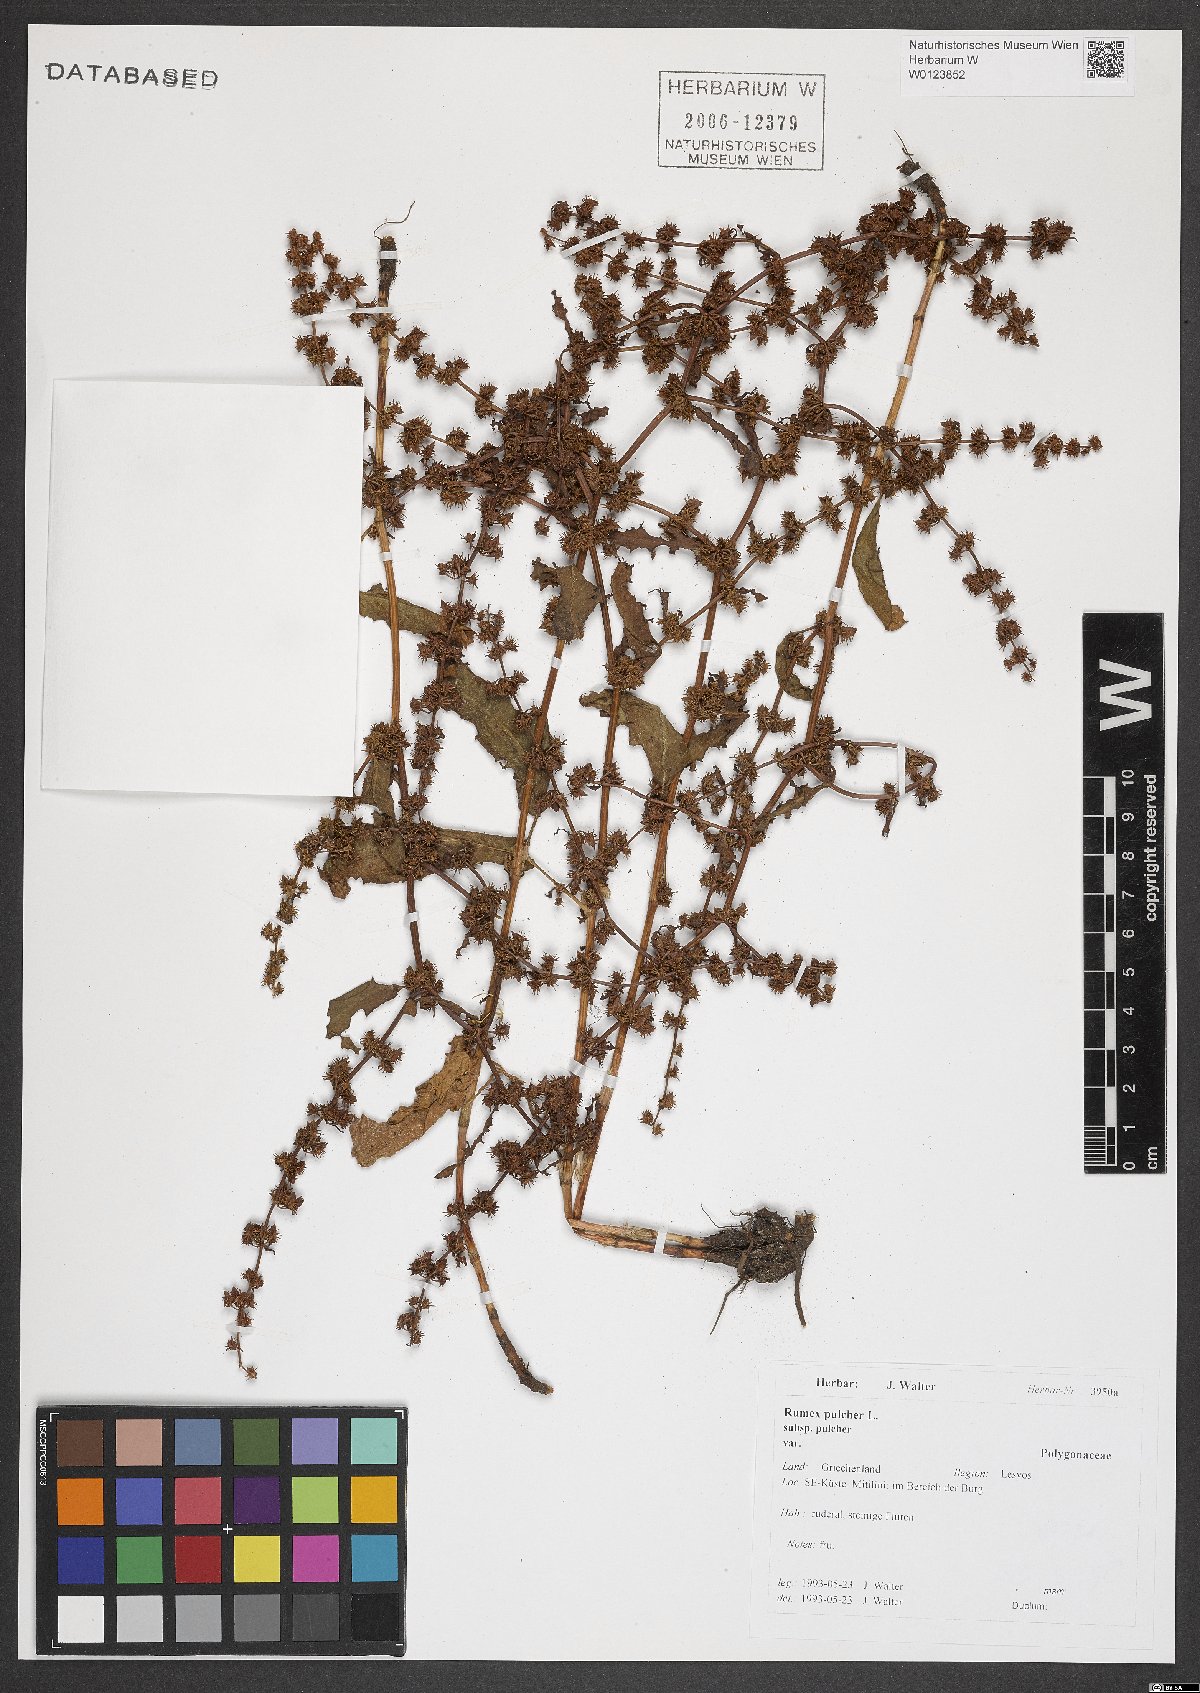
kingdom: Plantae
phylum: Tracheophyta
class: Magnoliopsida
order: Caryophyllales
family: Polygonaceae
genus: Rumex
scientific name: Rumex pulcher
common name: Fiddle dock
